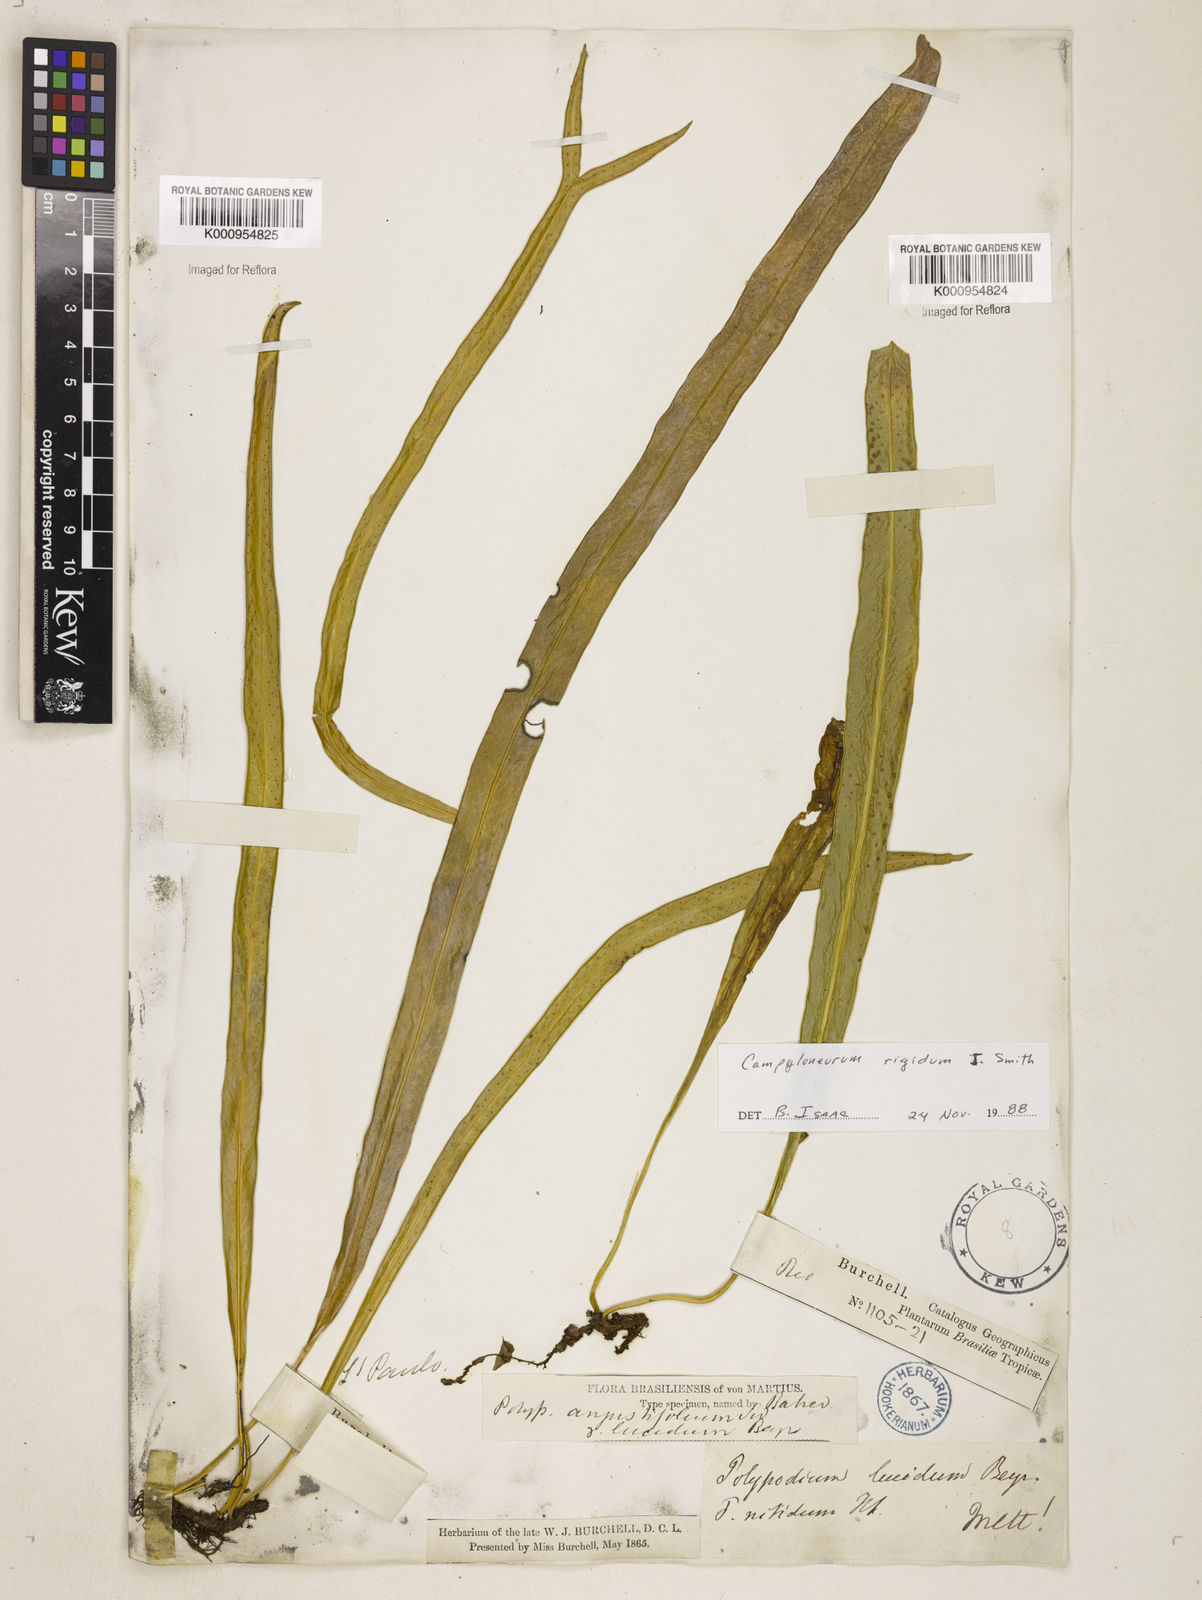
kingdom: Plantae
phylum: Tracheophyta
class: Polypodiopsida
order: Polypodiales
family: Polypodiaceae
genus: Campyloneurum
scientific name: Campyloneurum rigidum
